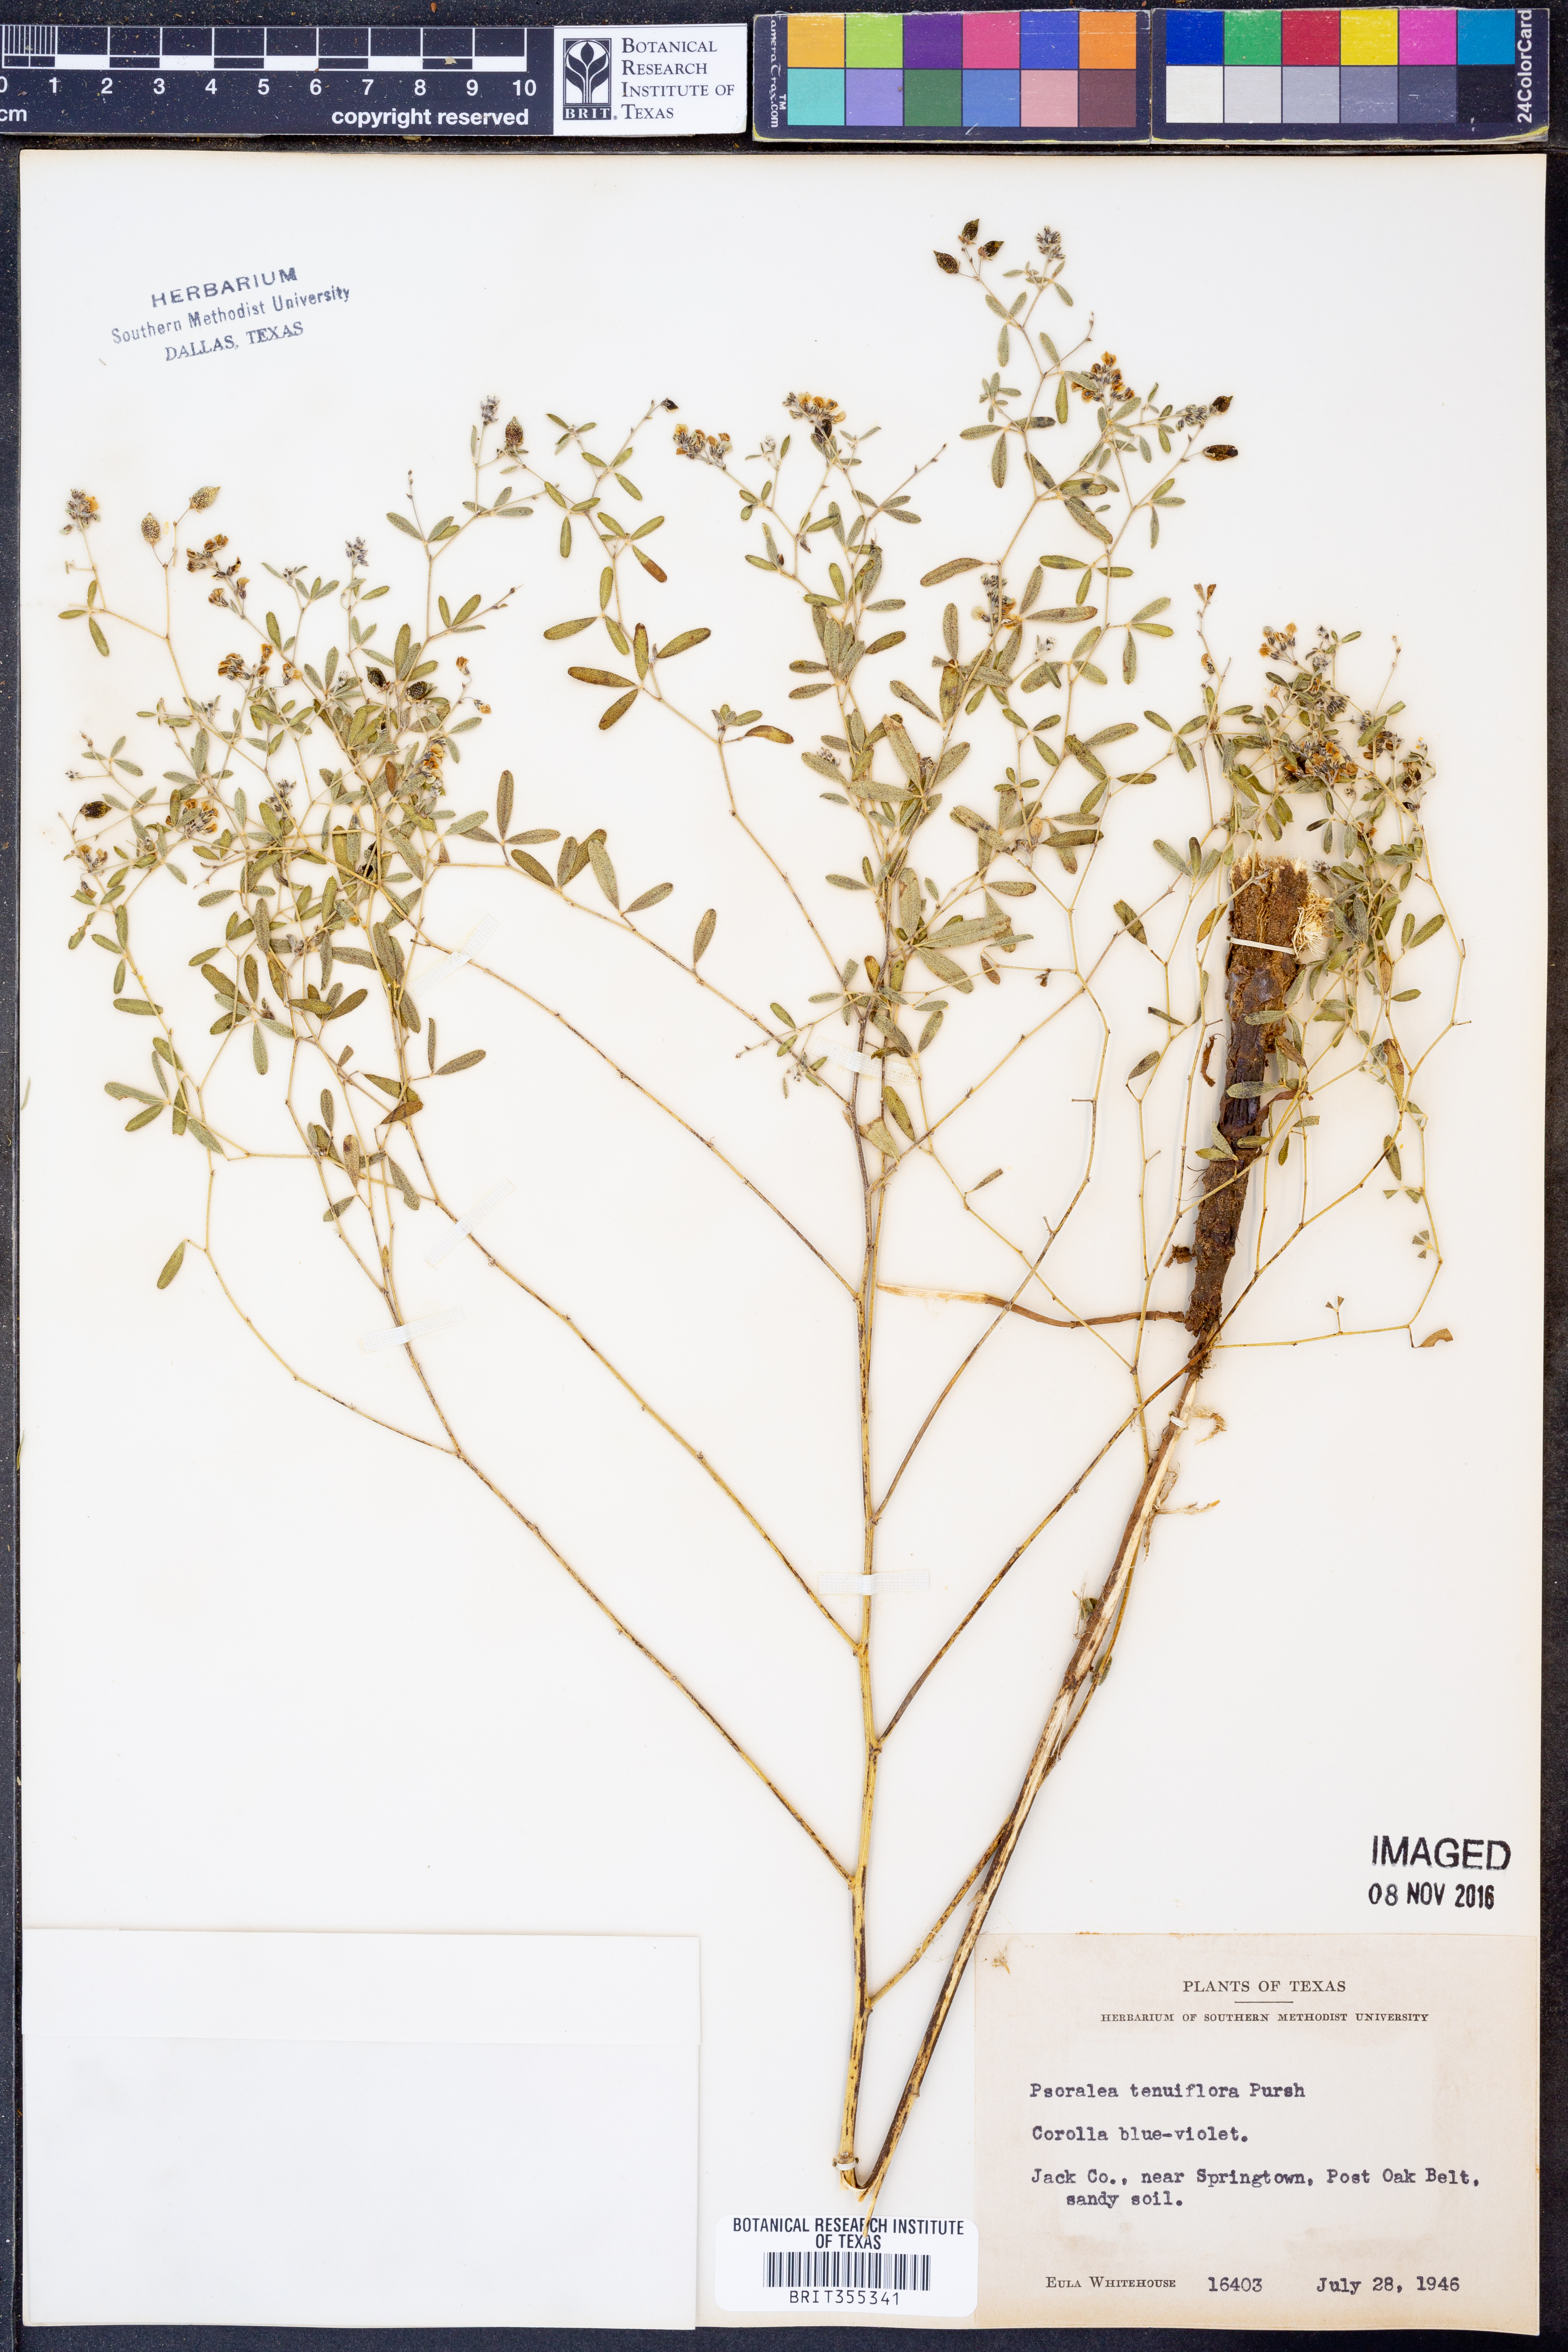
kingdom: Plantae
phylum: Tracheophyta
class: Magnoliopsida
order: Fabales
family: Fabaceae
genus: Pediomelum
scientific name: Pediomelum tenuiflorum
